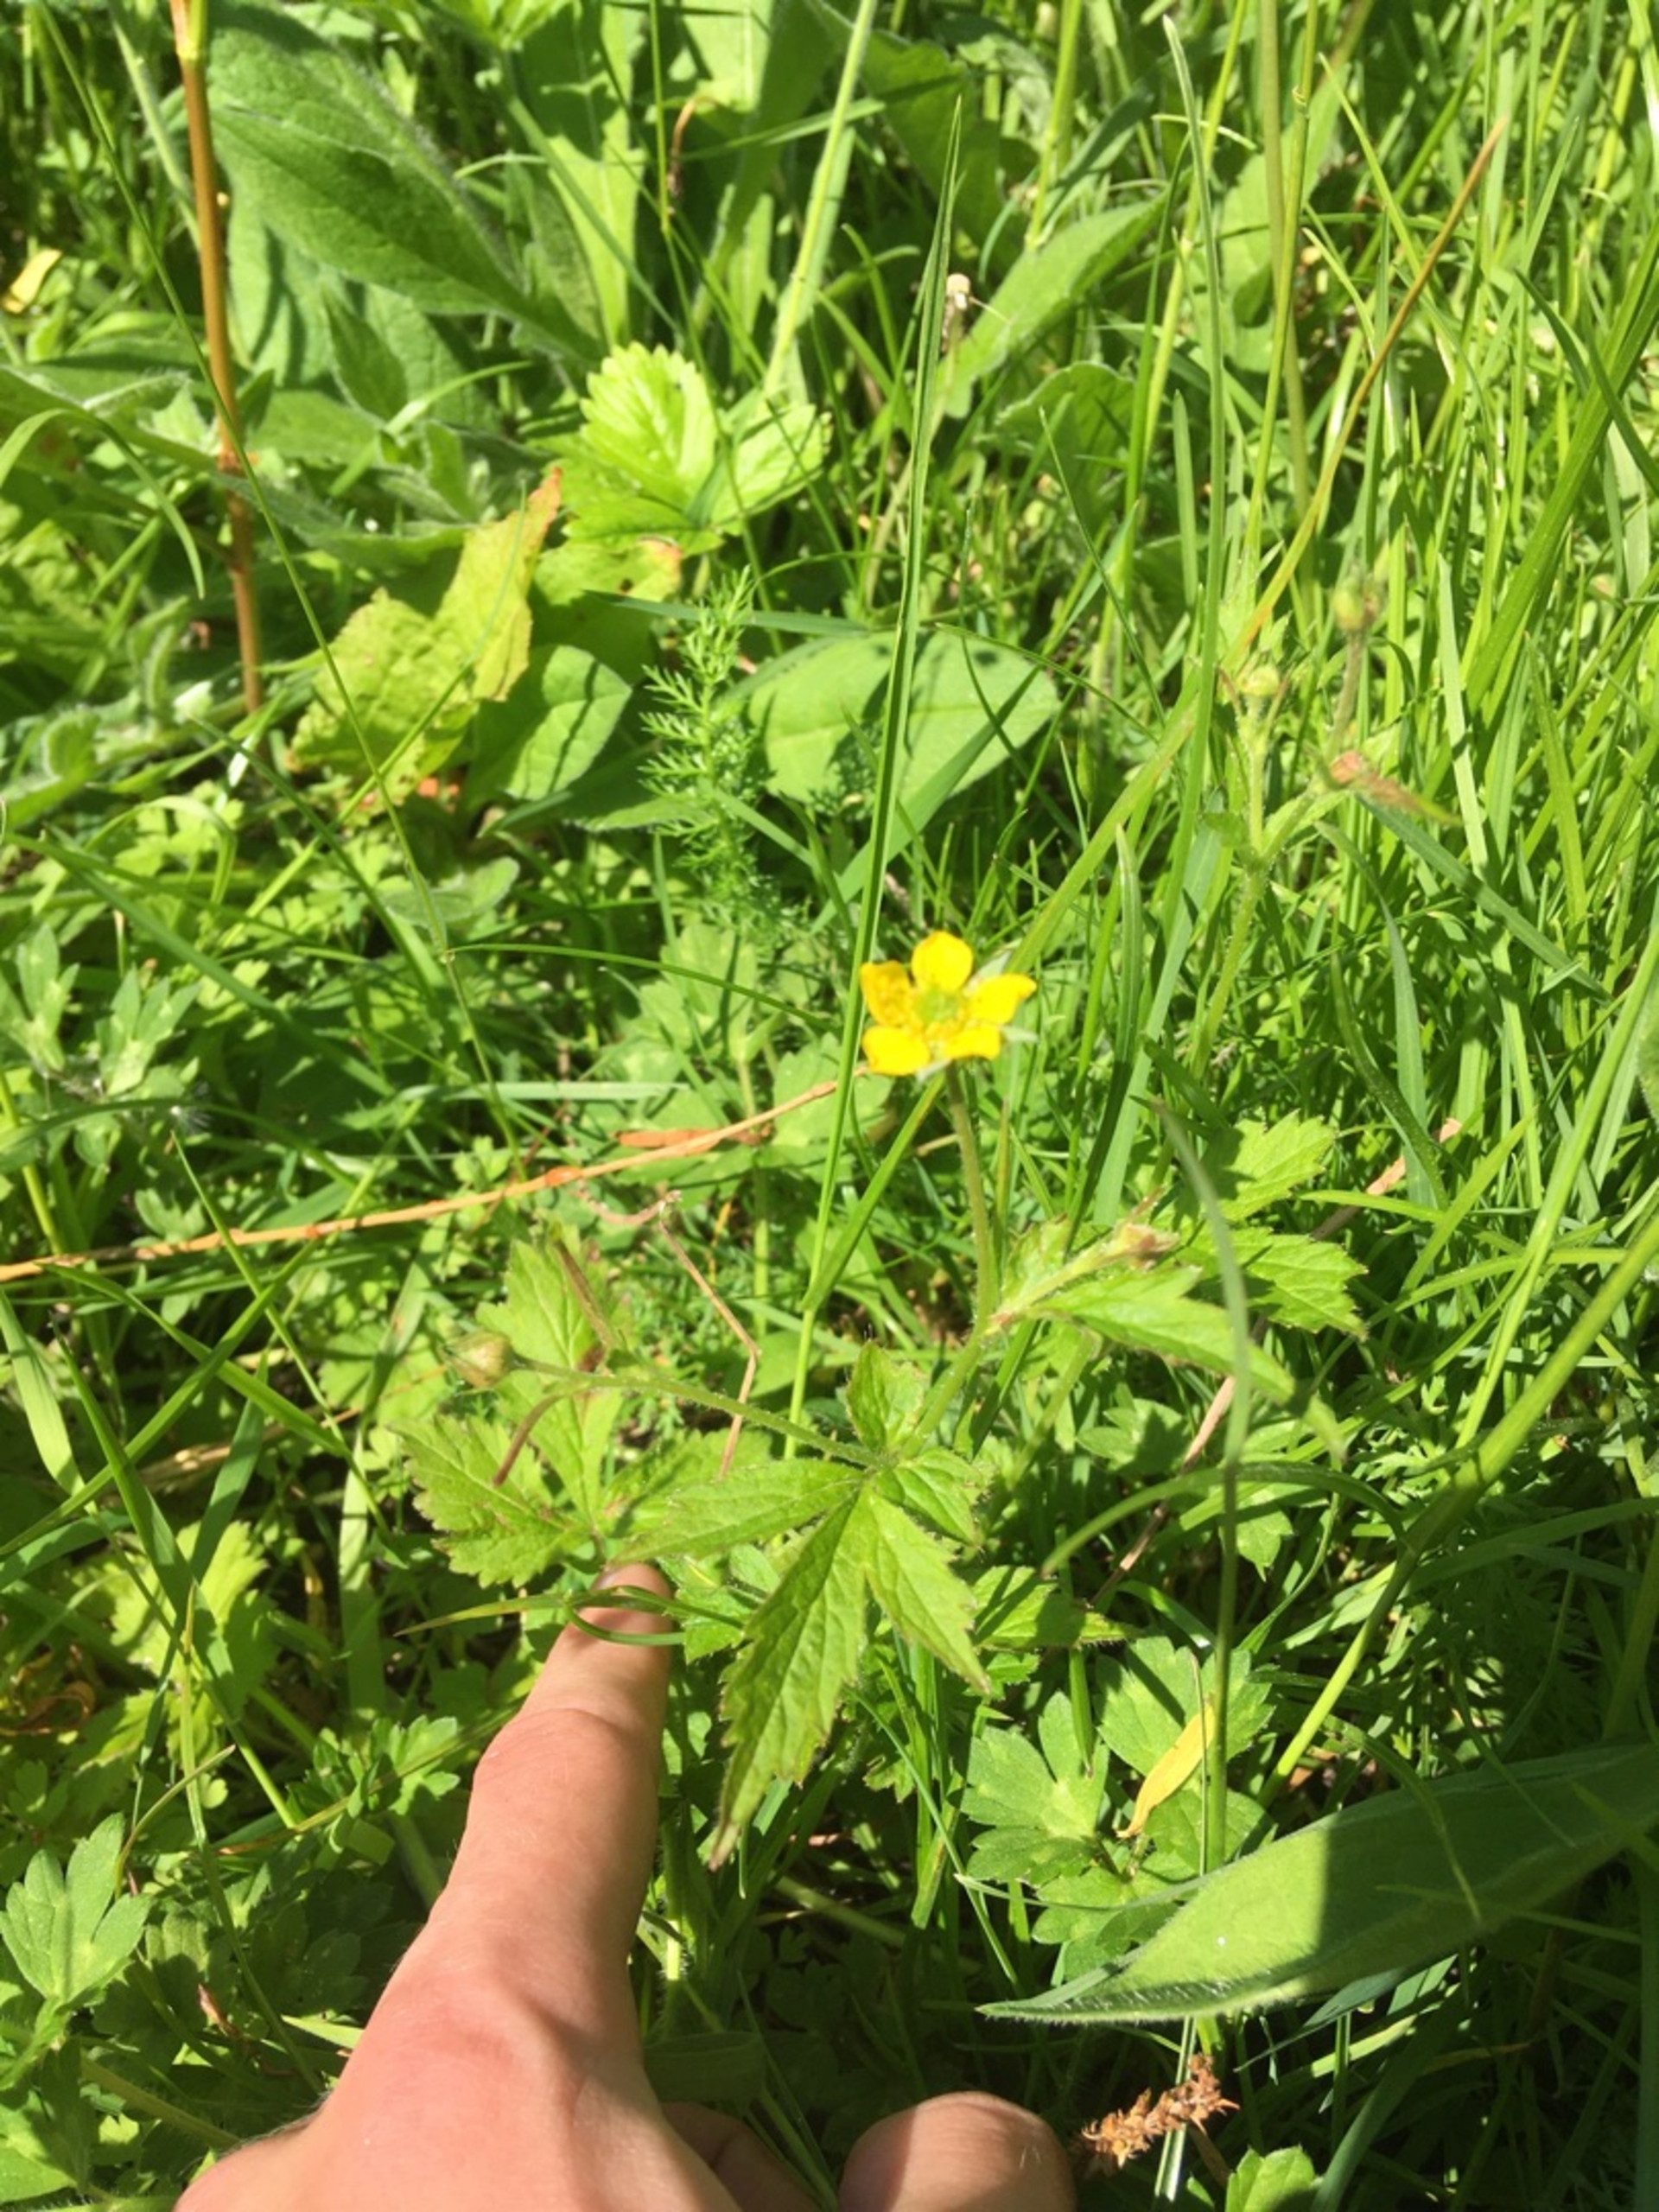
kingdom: Plantae
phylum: Tracheophyta
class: Magnoliopsida
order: Rosales
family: Rosaceae
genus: Geum
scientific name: Geum urbanum
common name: Feber-nellikerod
